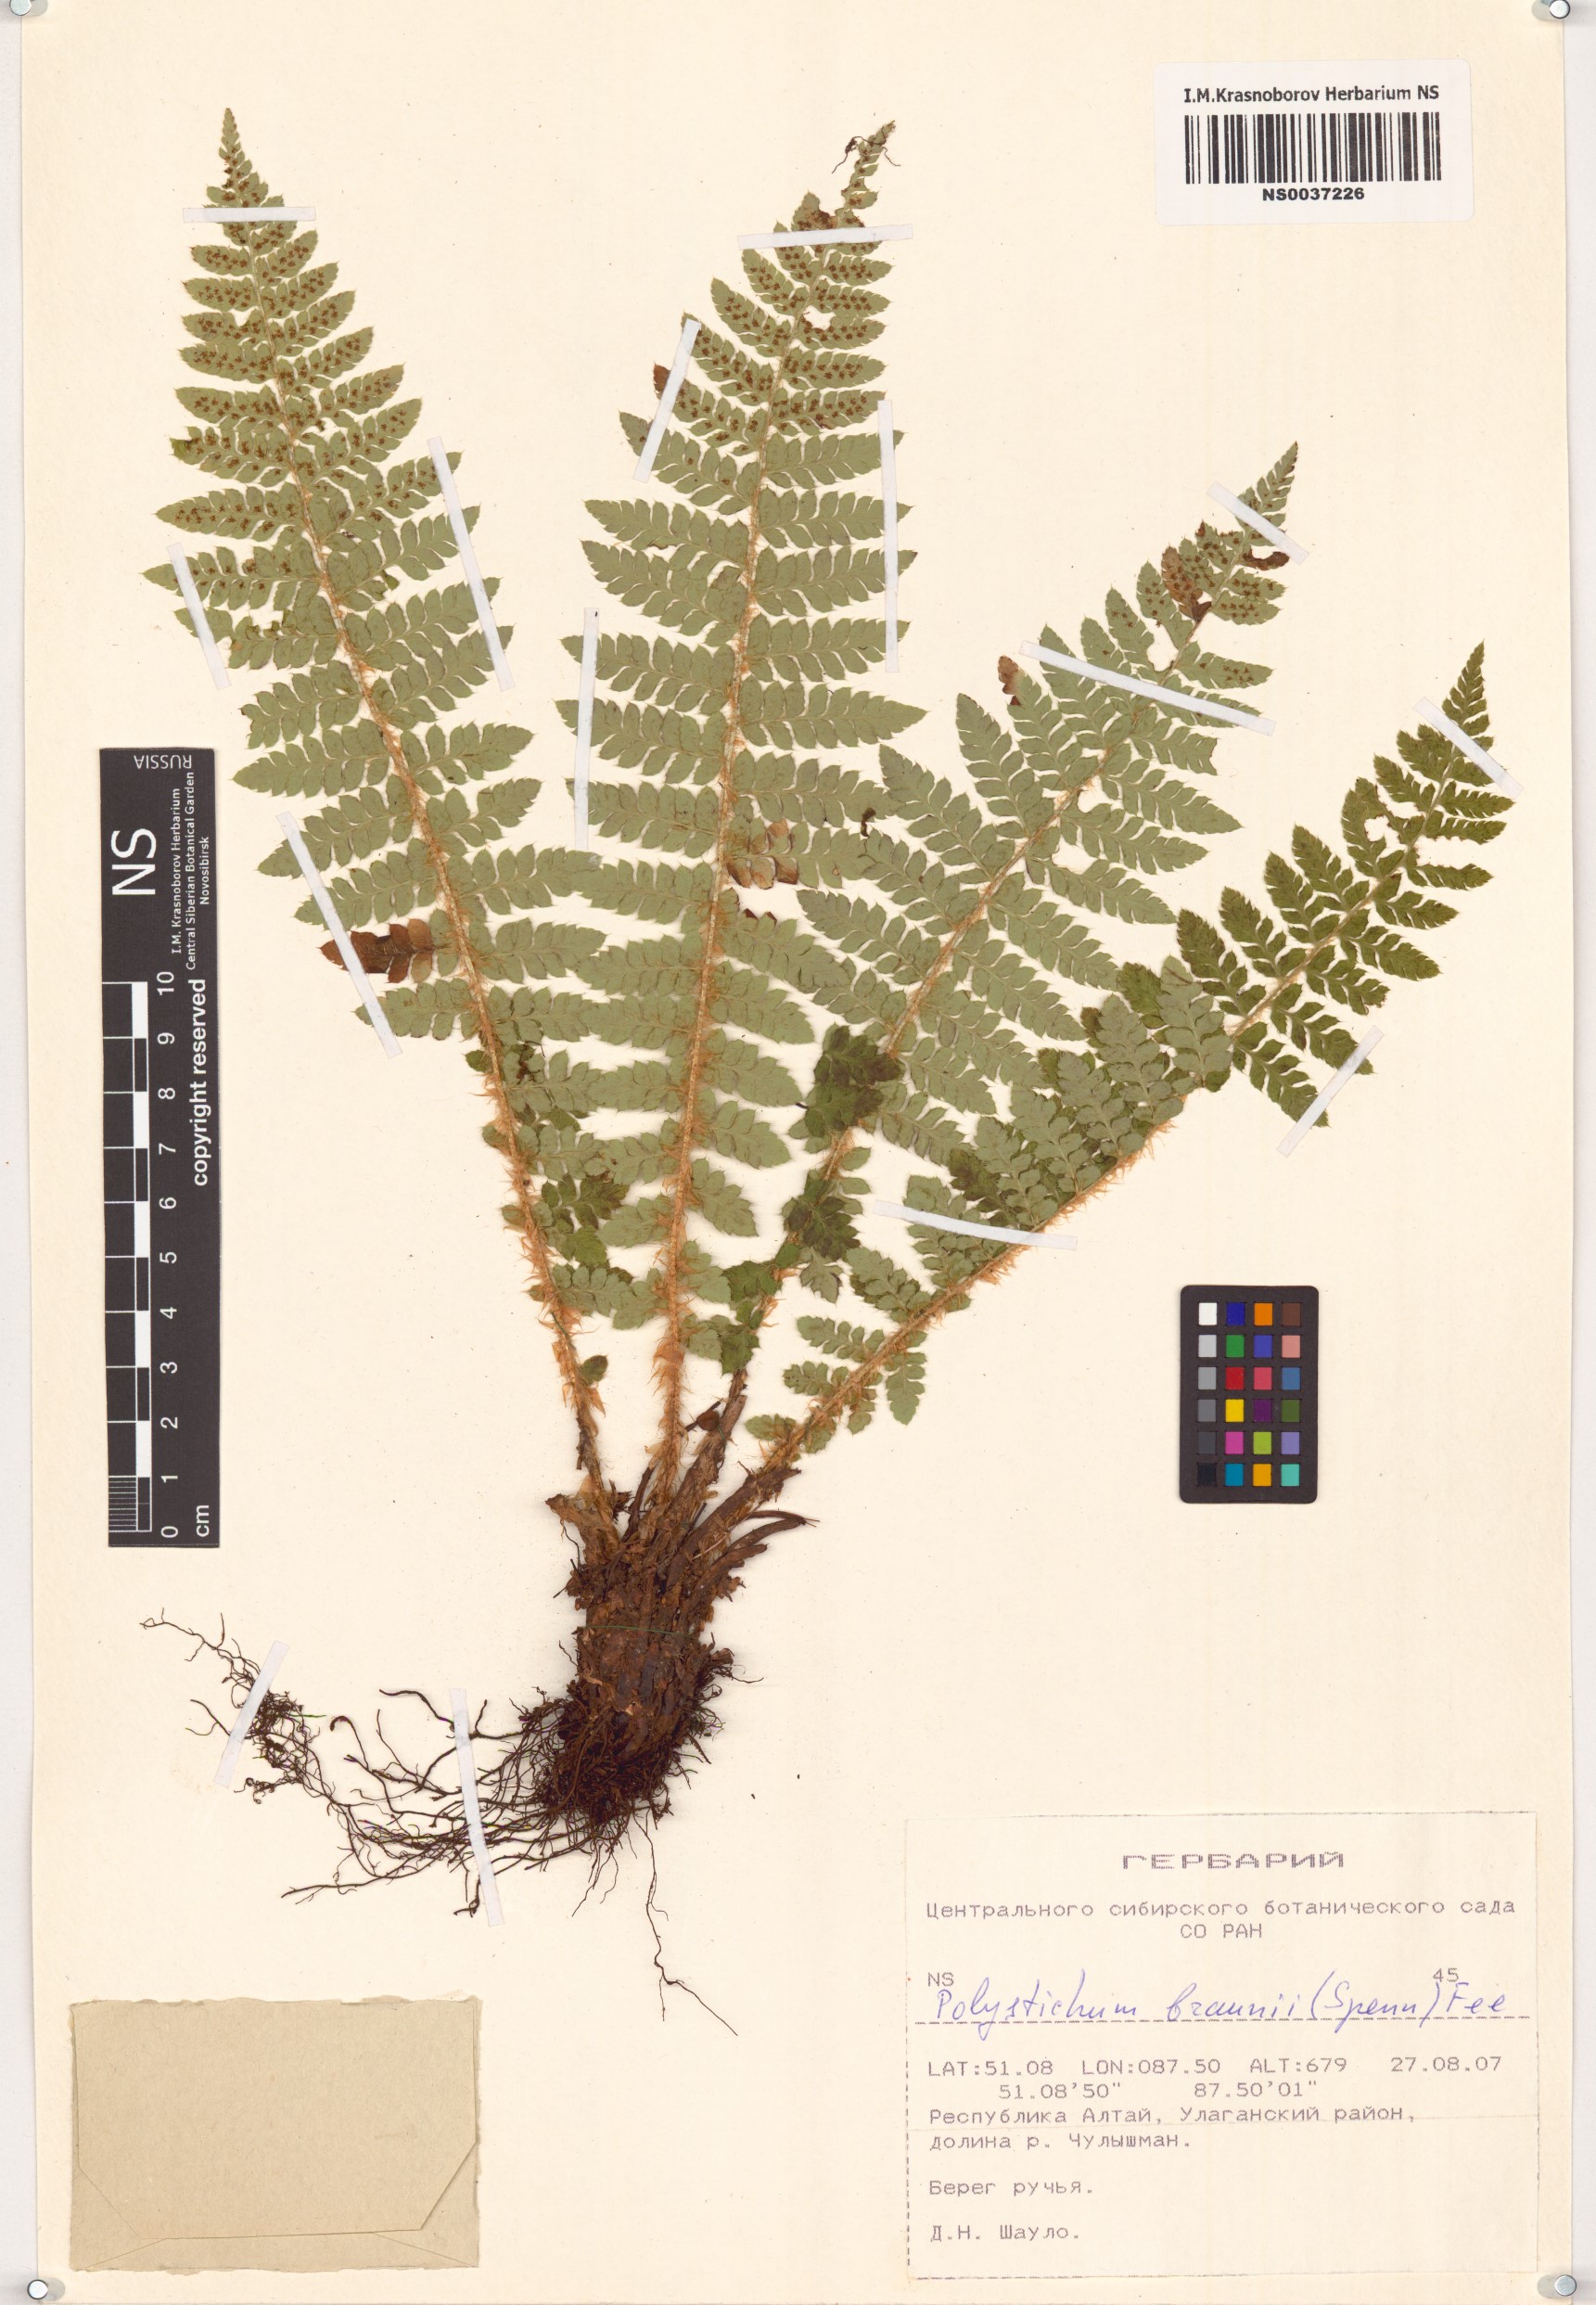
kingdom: Plantae
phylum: Tracheophyta
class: Polypodiopsida
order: Polypodiales
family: Dryopteridaceae
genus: Polystichum
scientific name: Polystichum braunii
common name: Braun's holly fern
